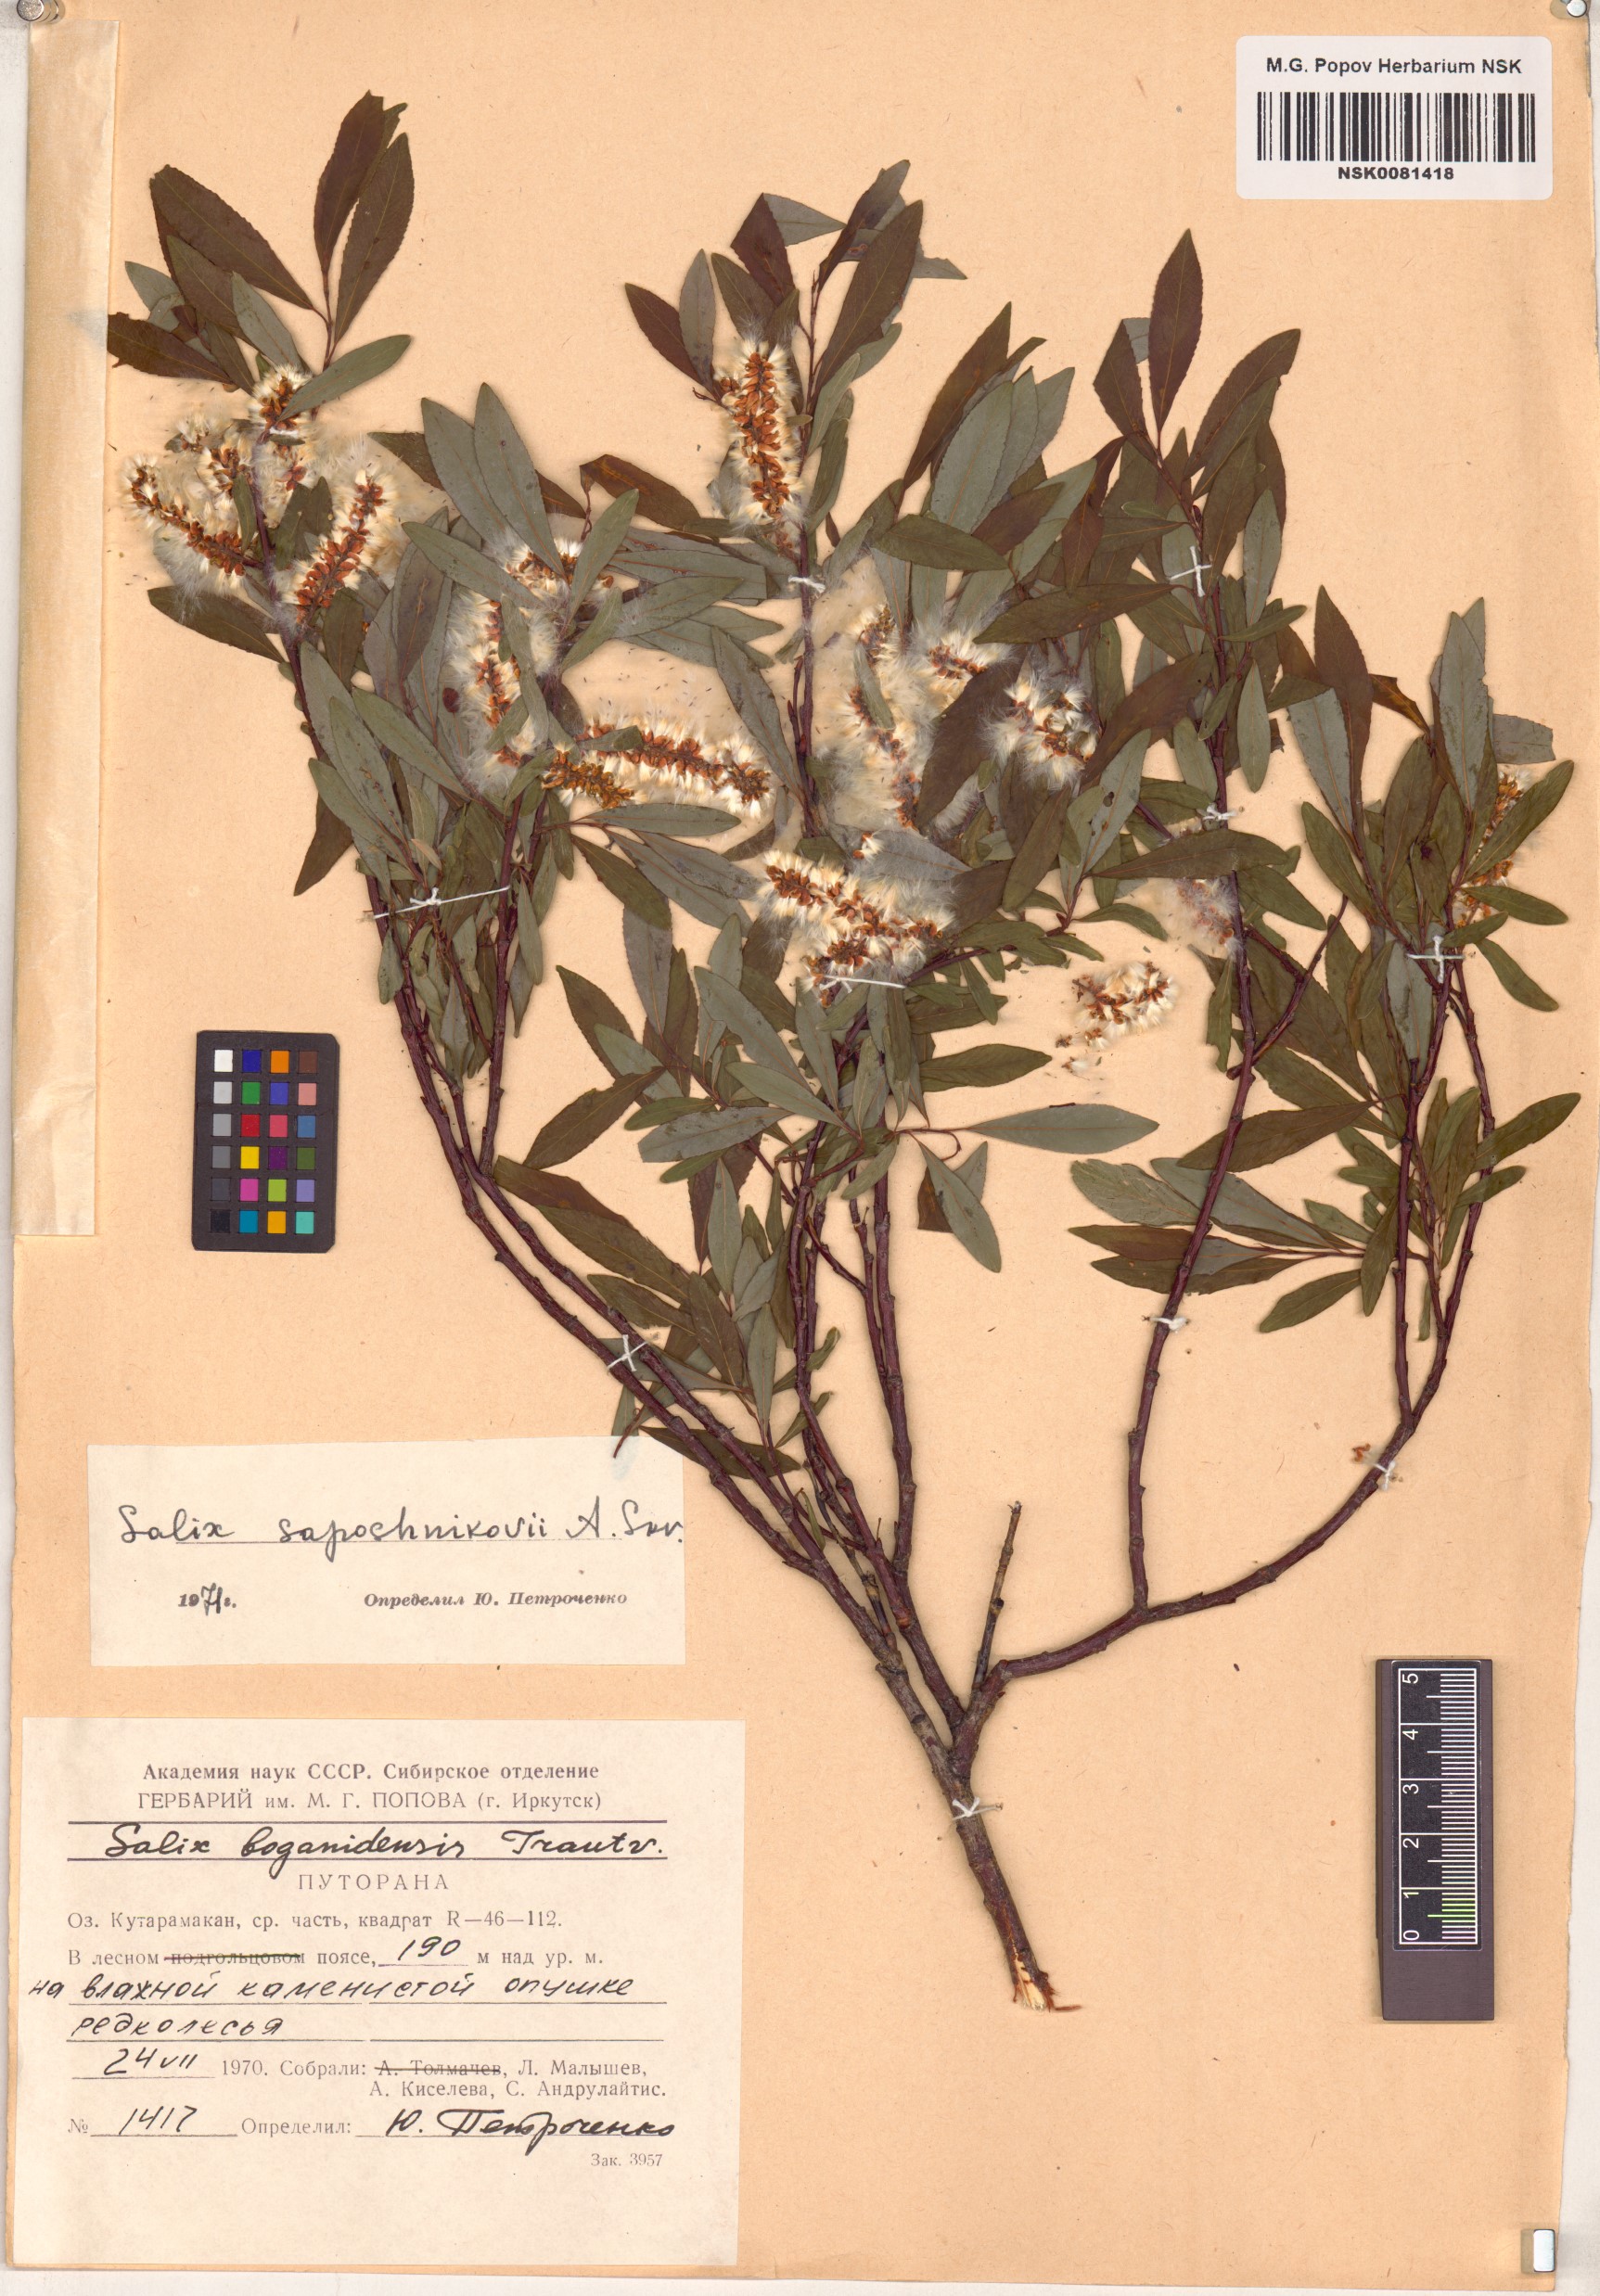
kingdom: Plantae
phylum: Tracheophyta
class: Magnoliopsida
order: Malpighiales
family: Salicaceae
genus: Salix
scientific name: Salix saposhnikovii
